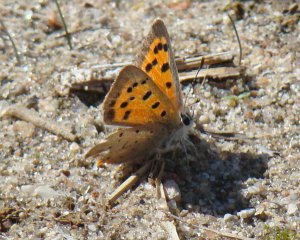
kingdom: Animalia
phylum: Arthropoda
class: Insecta
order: Lepidoptera
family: Lycaenidae
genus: Lycaena
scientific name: Lycaena phlaeas
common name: American Copper
